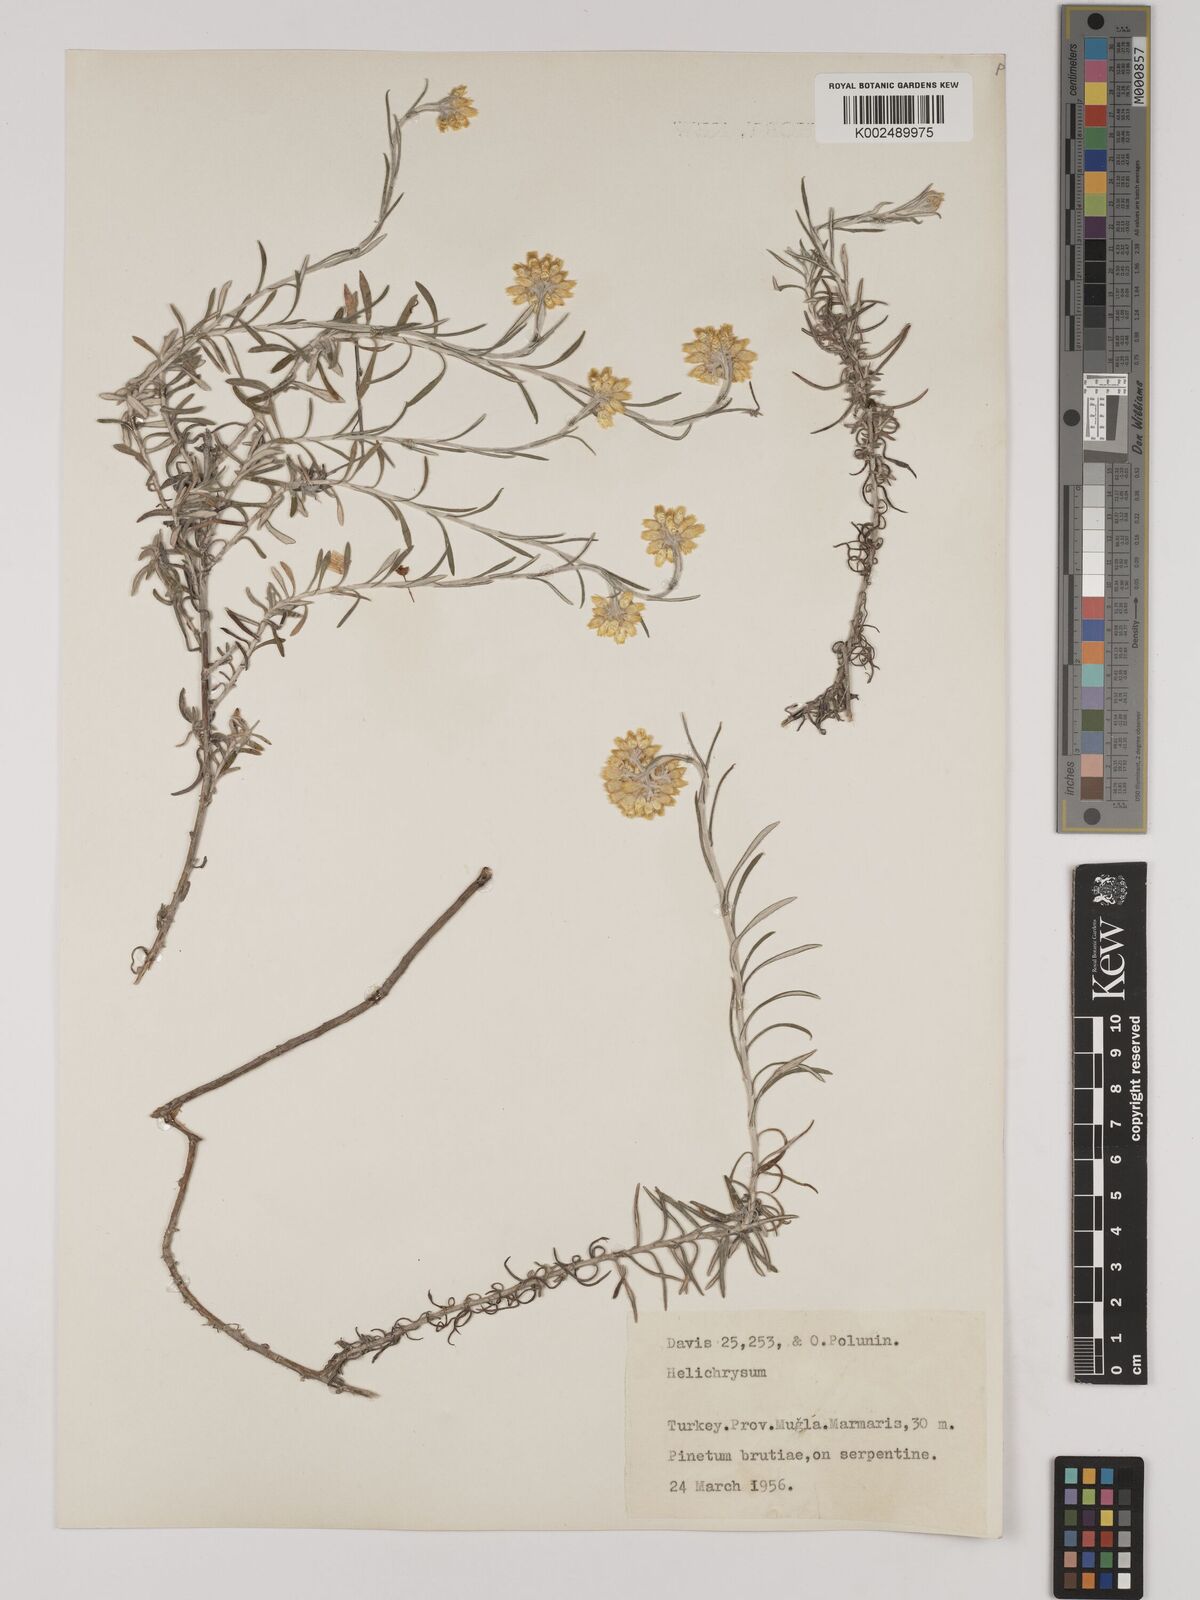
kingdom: Plantae
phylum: Tracheophyta
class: Magnoliopsida
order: Asterales
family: Asteraceae
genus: Helichrysum
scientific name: Helichrysum stoechas
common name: Goldilocks
